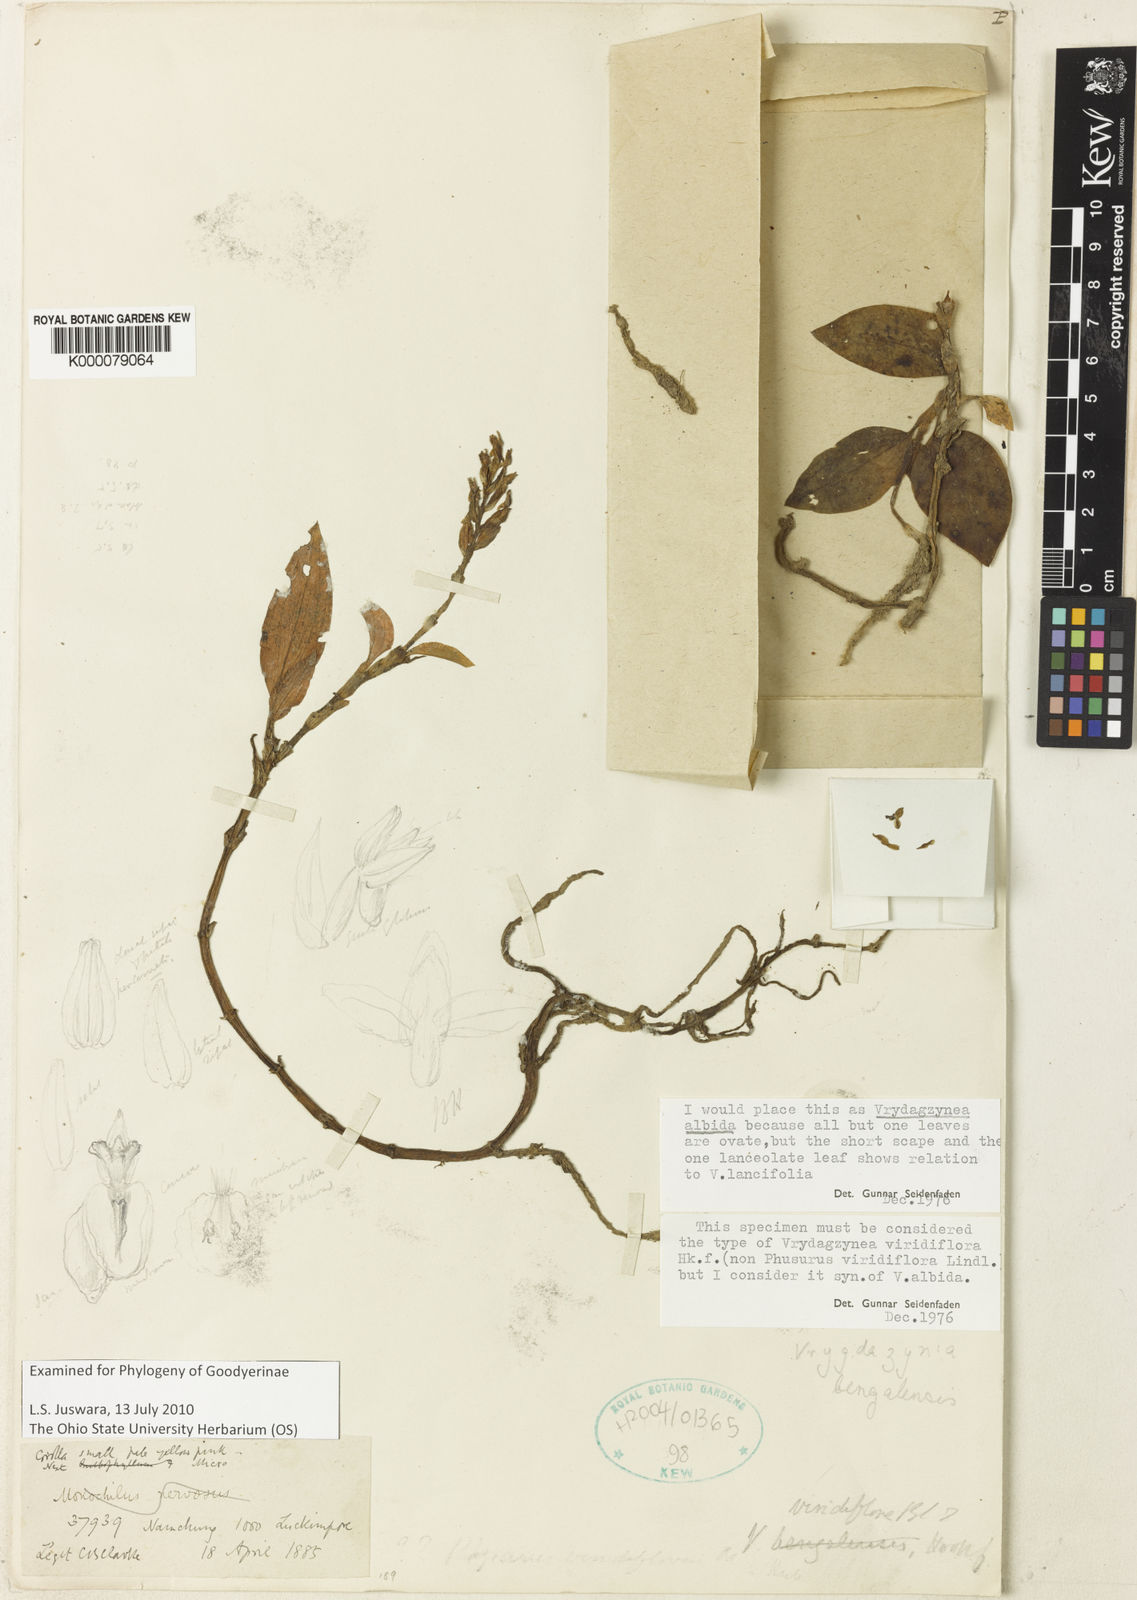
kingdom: Plantae
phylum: Tracheophyta
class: Liliopsida
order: Asparagales
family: Orchidaceae
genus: Aenhenrya
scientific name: Aenhenrya
